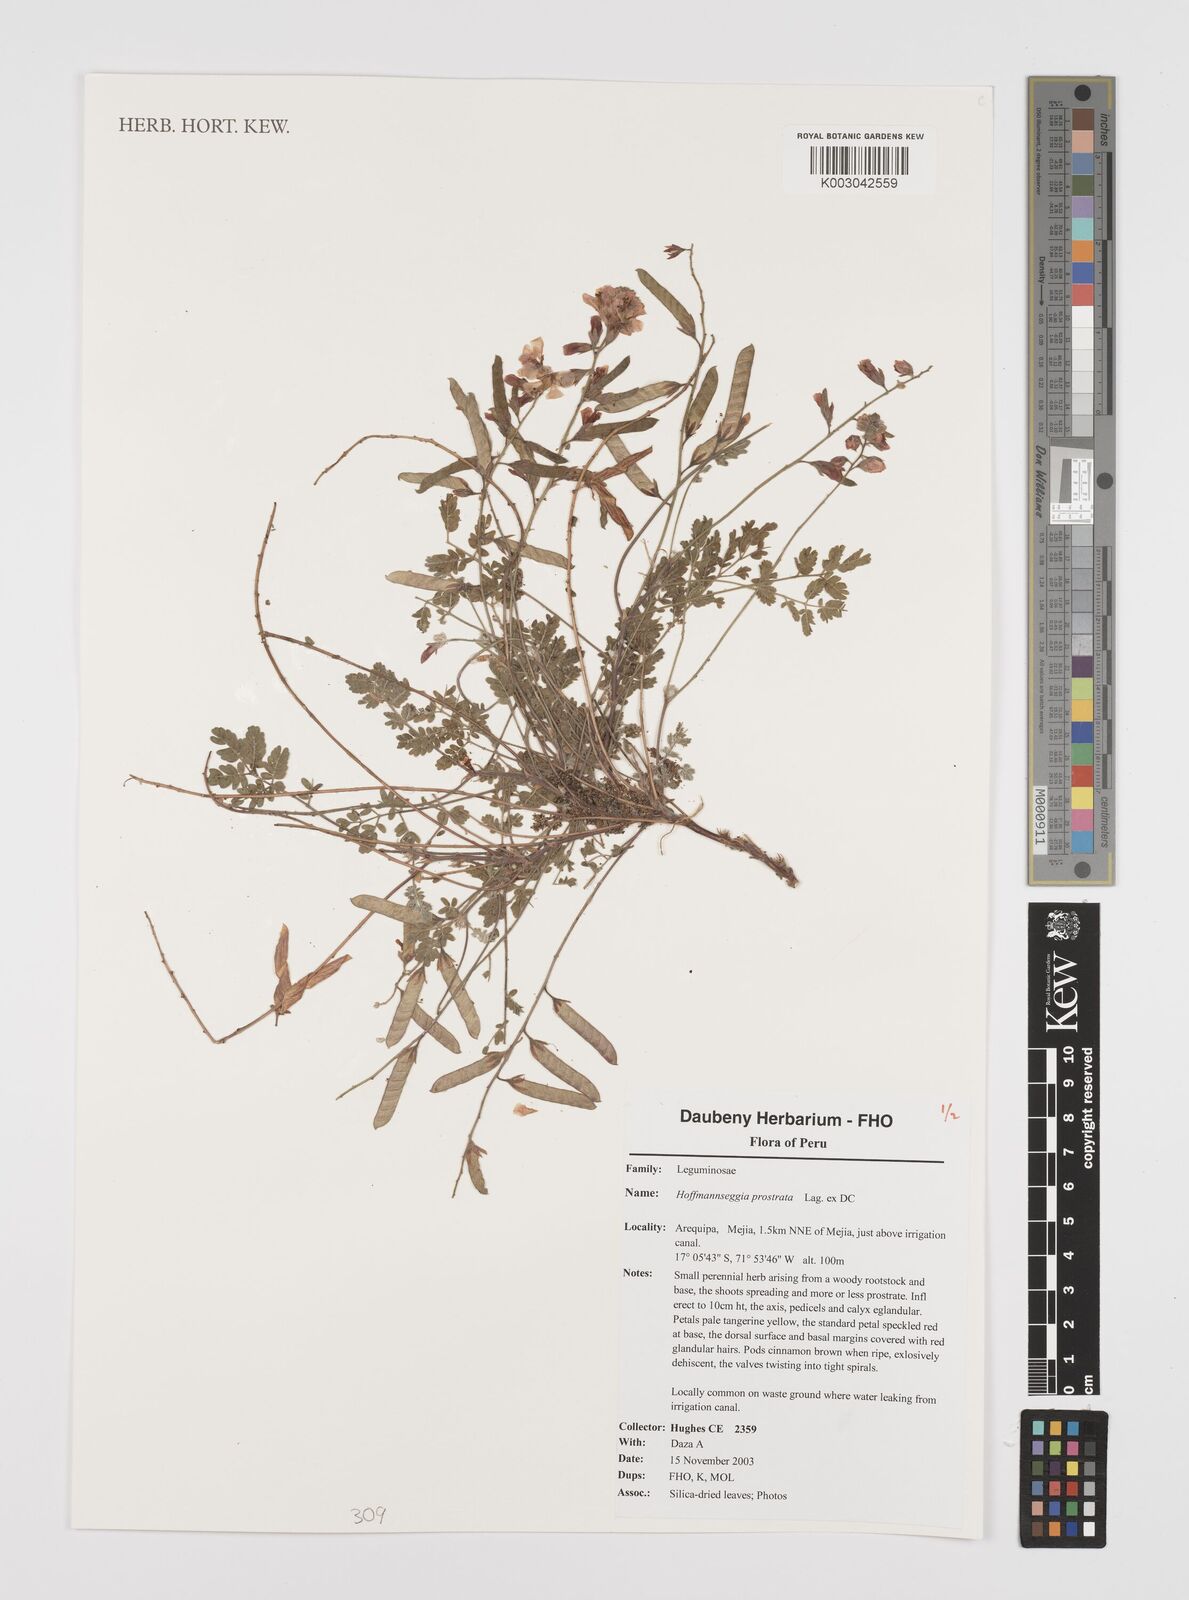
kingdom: Plantae
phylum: Tracheophyta
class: Magnoliopsida
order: Fabales
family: Fabaceae
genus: Hoffmannseggia
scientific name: Hoffmannseggia prostrata
